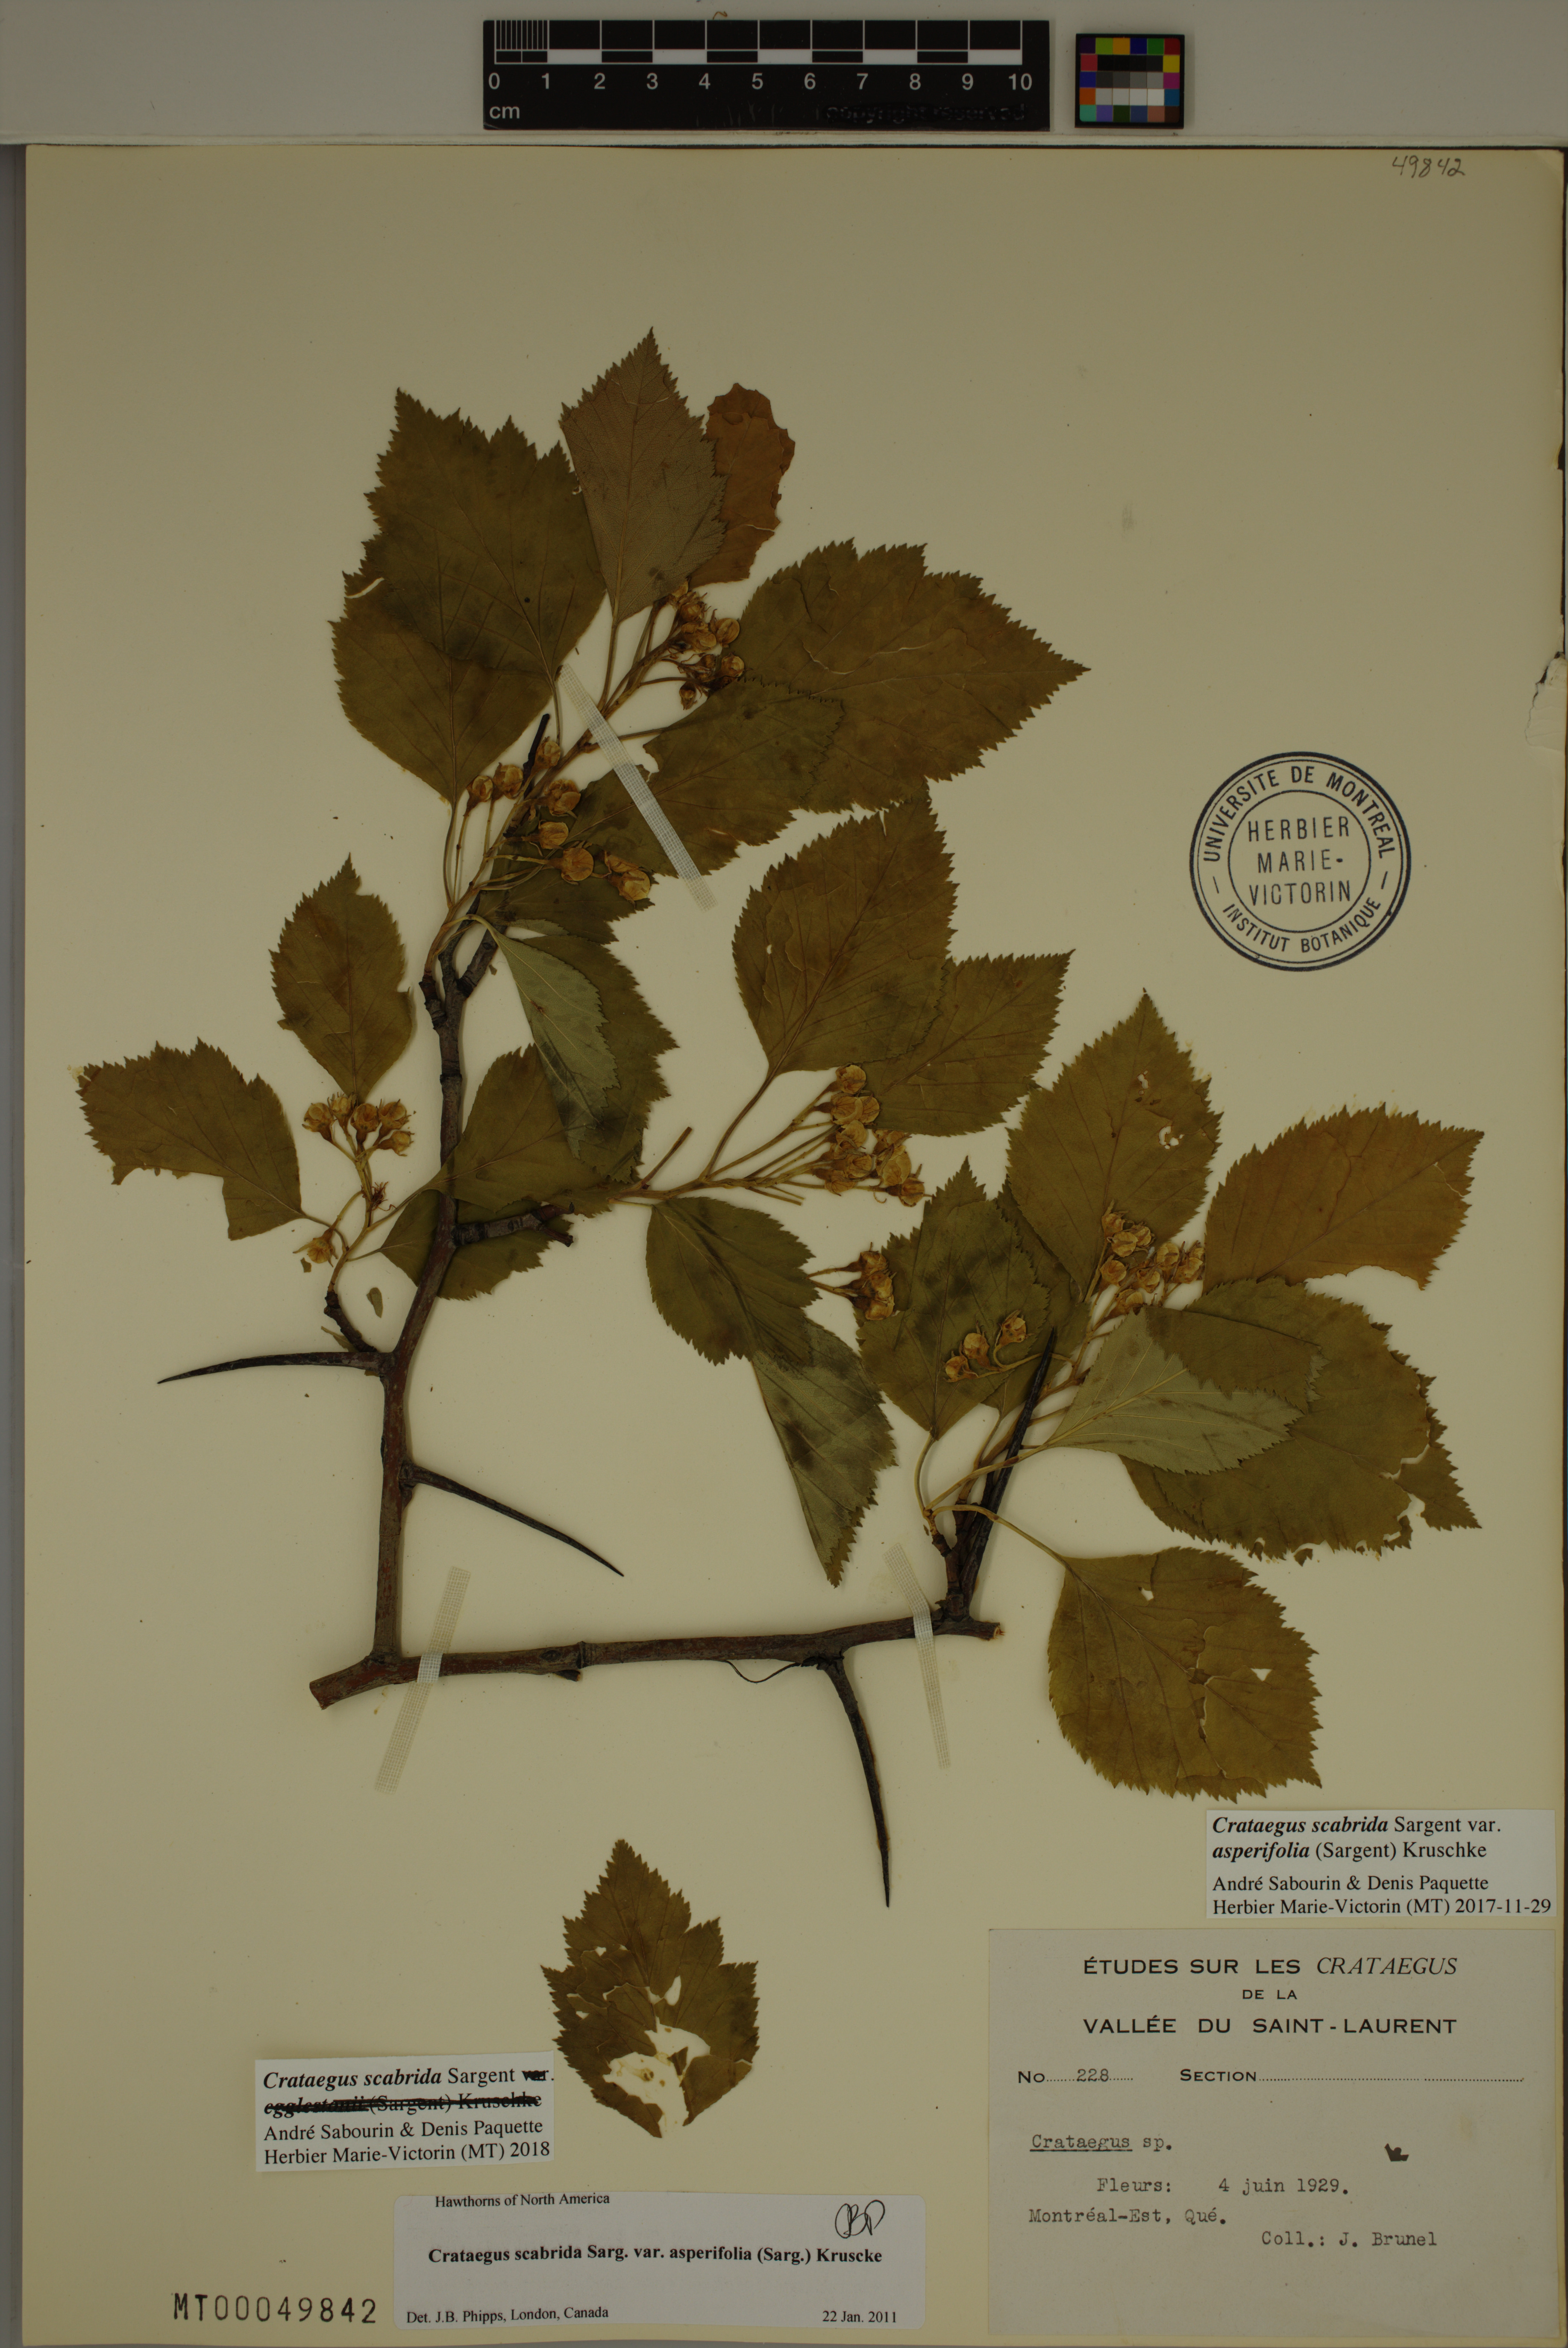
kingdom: Plantae
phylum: Tracheophyta
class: Magnoliopsida
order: Rosales
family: Rosaceae
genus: Crataegus
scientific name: Crataegus scabrida
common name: Rough hawthorn
